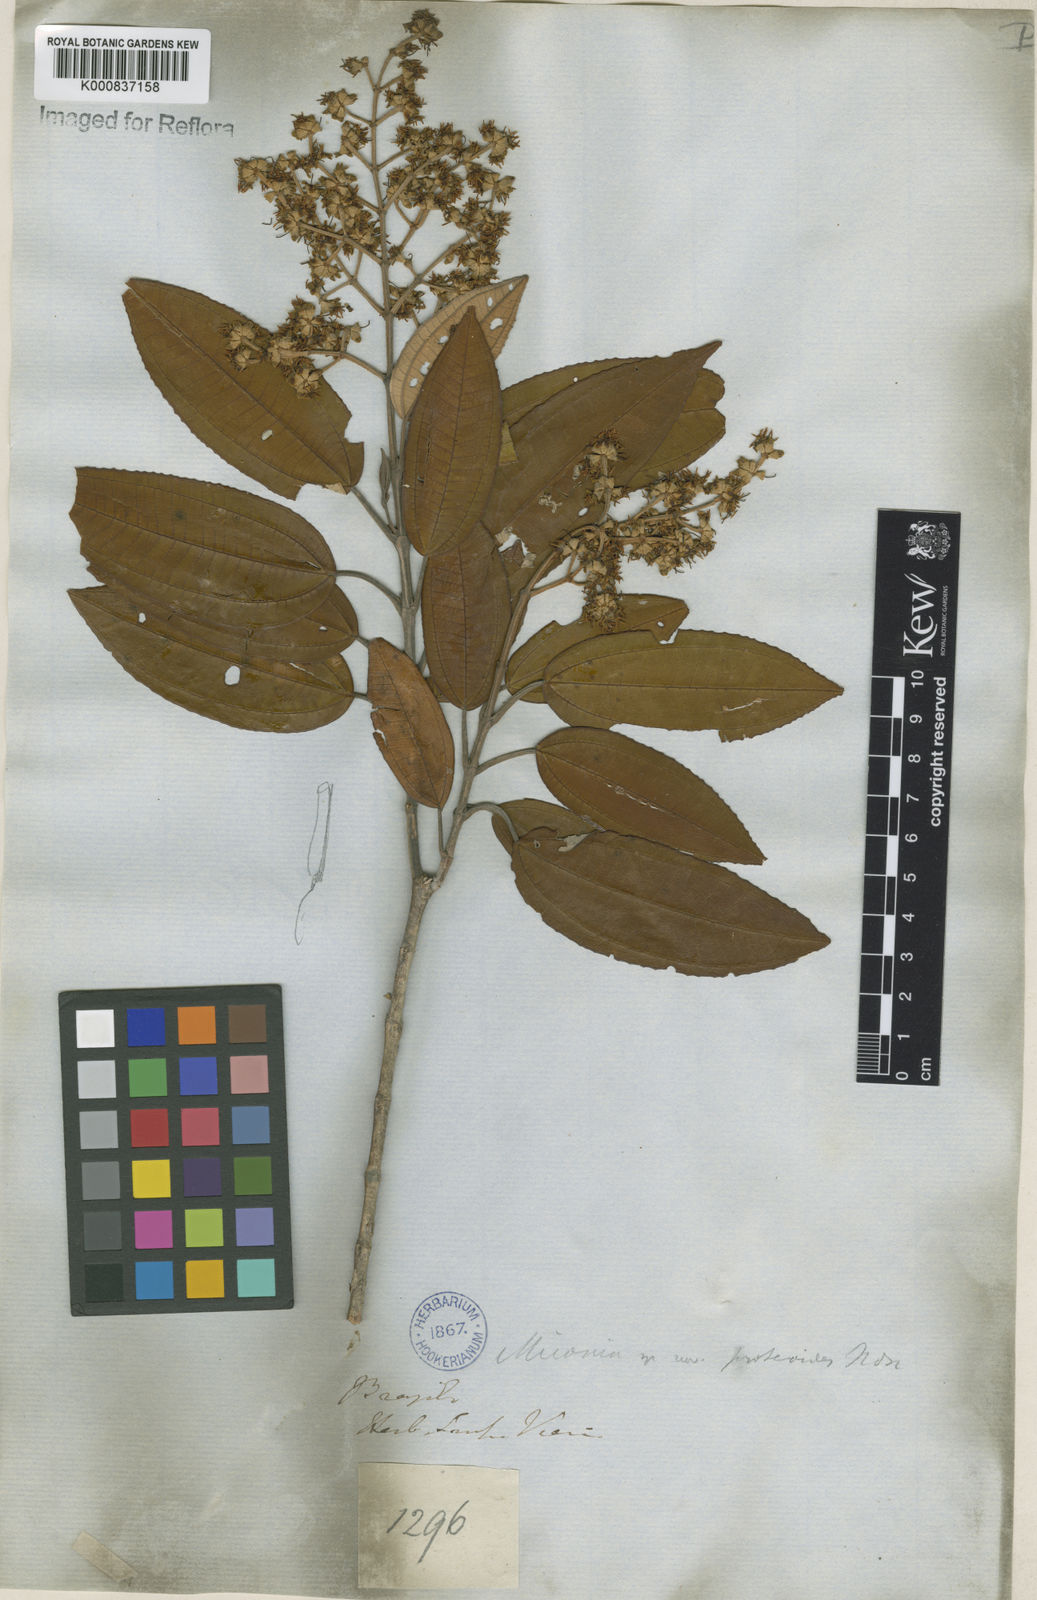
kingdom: Plantae
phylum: Tracheophyta
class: Magnoliopsida
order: Myrtales
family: Melastomataceae
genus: Miconia
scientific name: Miconia cinerascens
